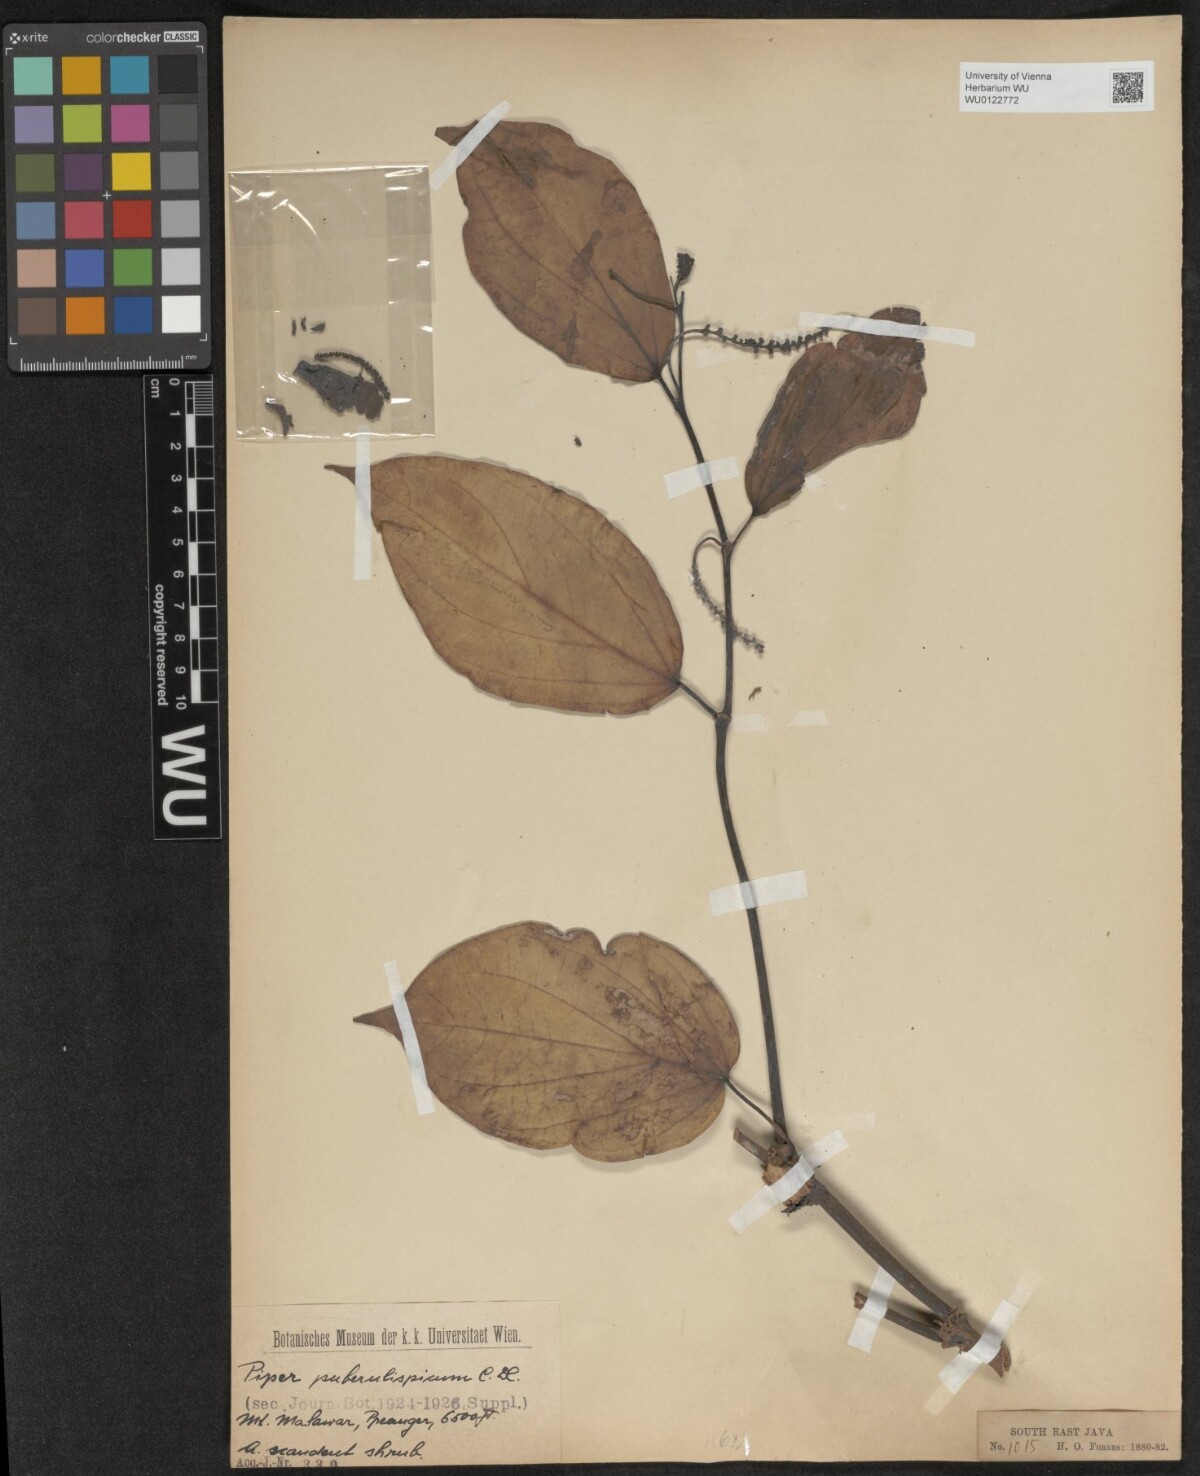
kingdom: Plantae
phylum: Tracheophyta
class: Magnoliopsida
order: Piperales
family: Piperaceae
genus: Piper
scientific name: Piper puberulispicum
